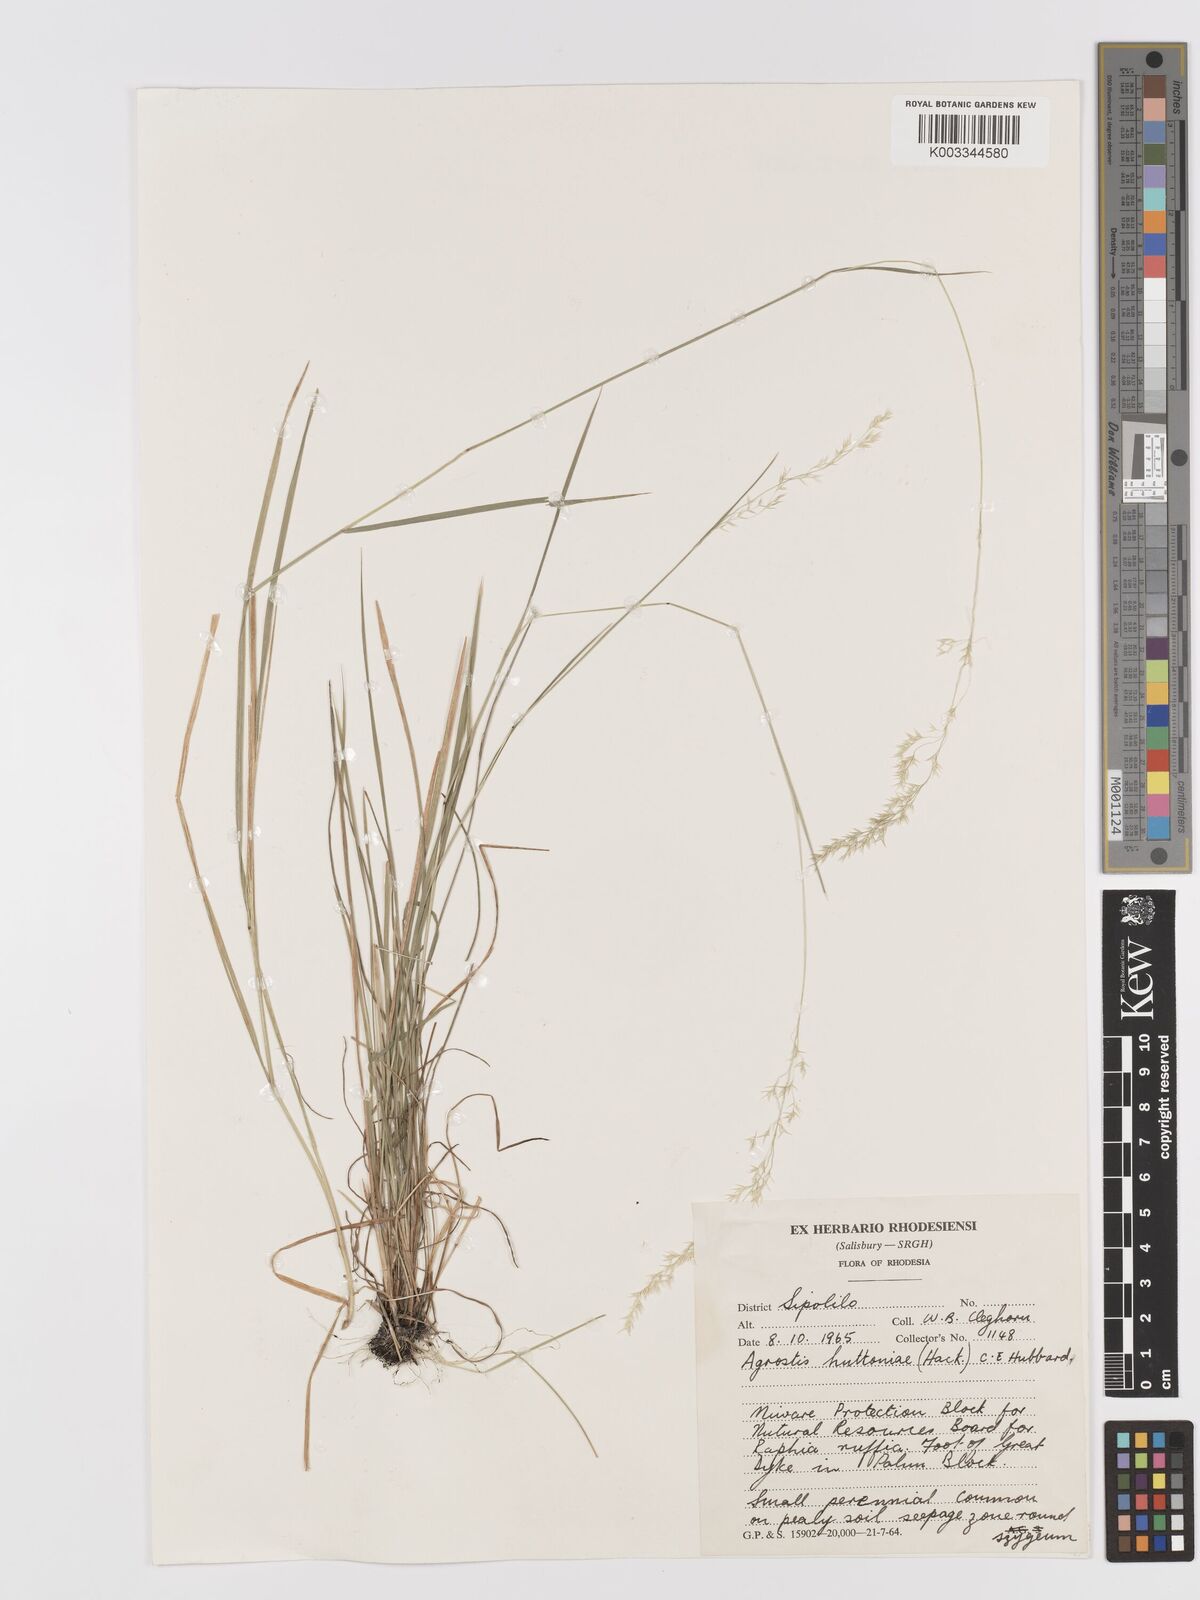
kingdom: Plantae
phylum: Tracheophyta
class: Liliopsida
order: Poales
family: Poaceae
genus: Lachnagrostis
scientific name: Lachnagrostis lachnantha
